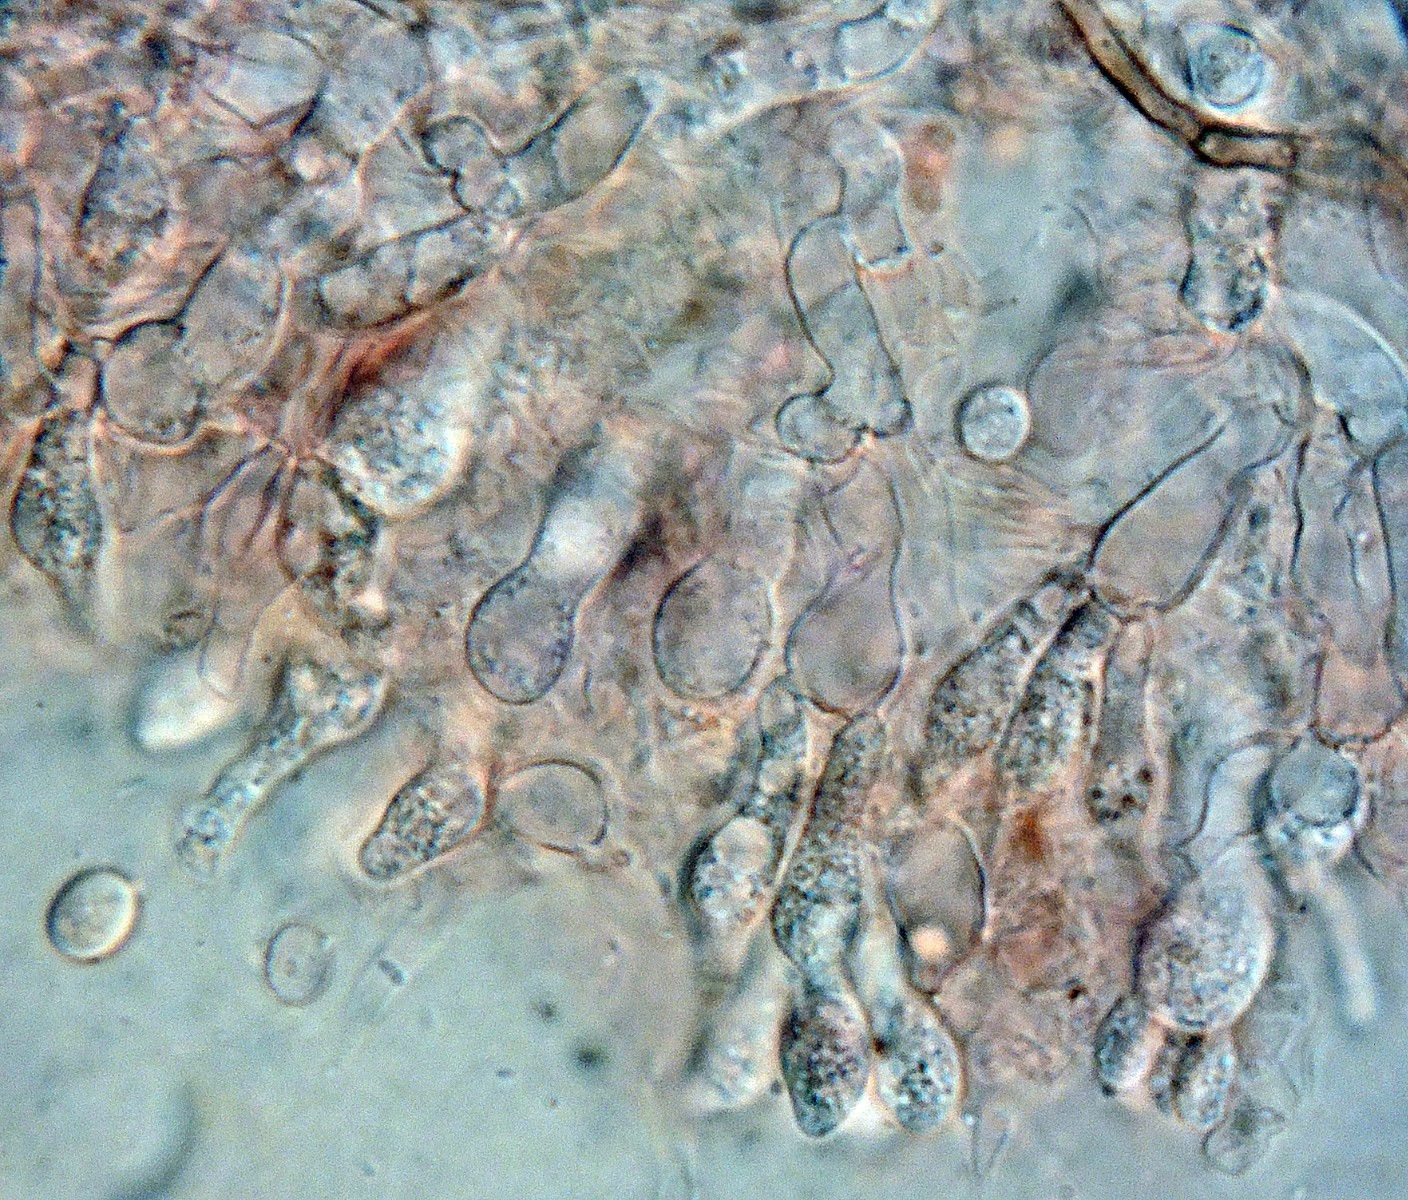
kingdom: Fungi
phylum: Basidiomycota
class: Agaricomycetes
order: Cantharellales
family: Tulasnellaceae
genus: Tulasnella
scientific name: Tulasnella violea
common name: violet ballonhinde
